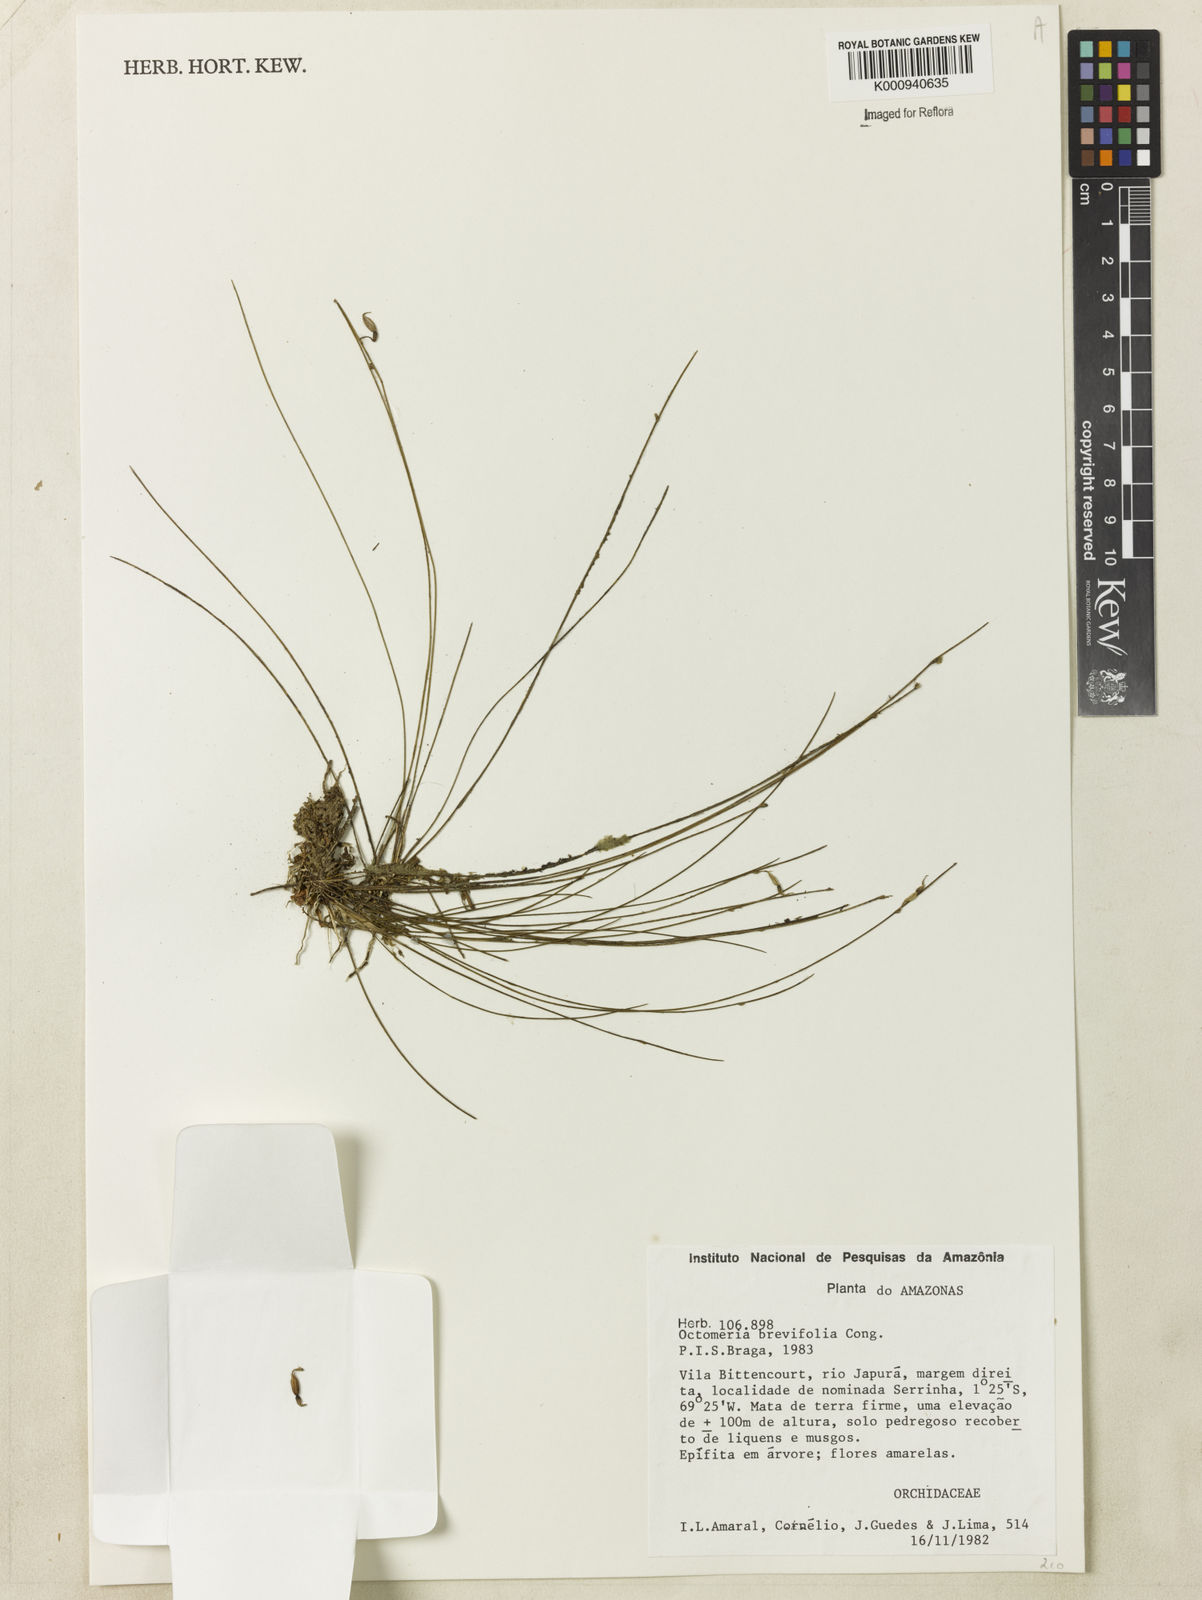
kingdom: Plantae
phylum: Tracheophyta
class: Liliopsida
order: Asparagales
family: Orchidaceae
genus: Octomeria
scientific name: Octomeria scirpoidea
